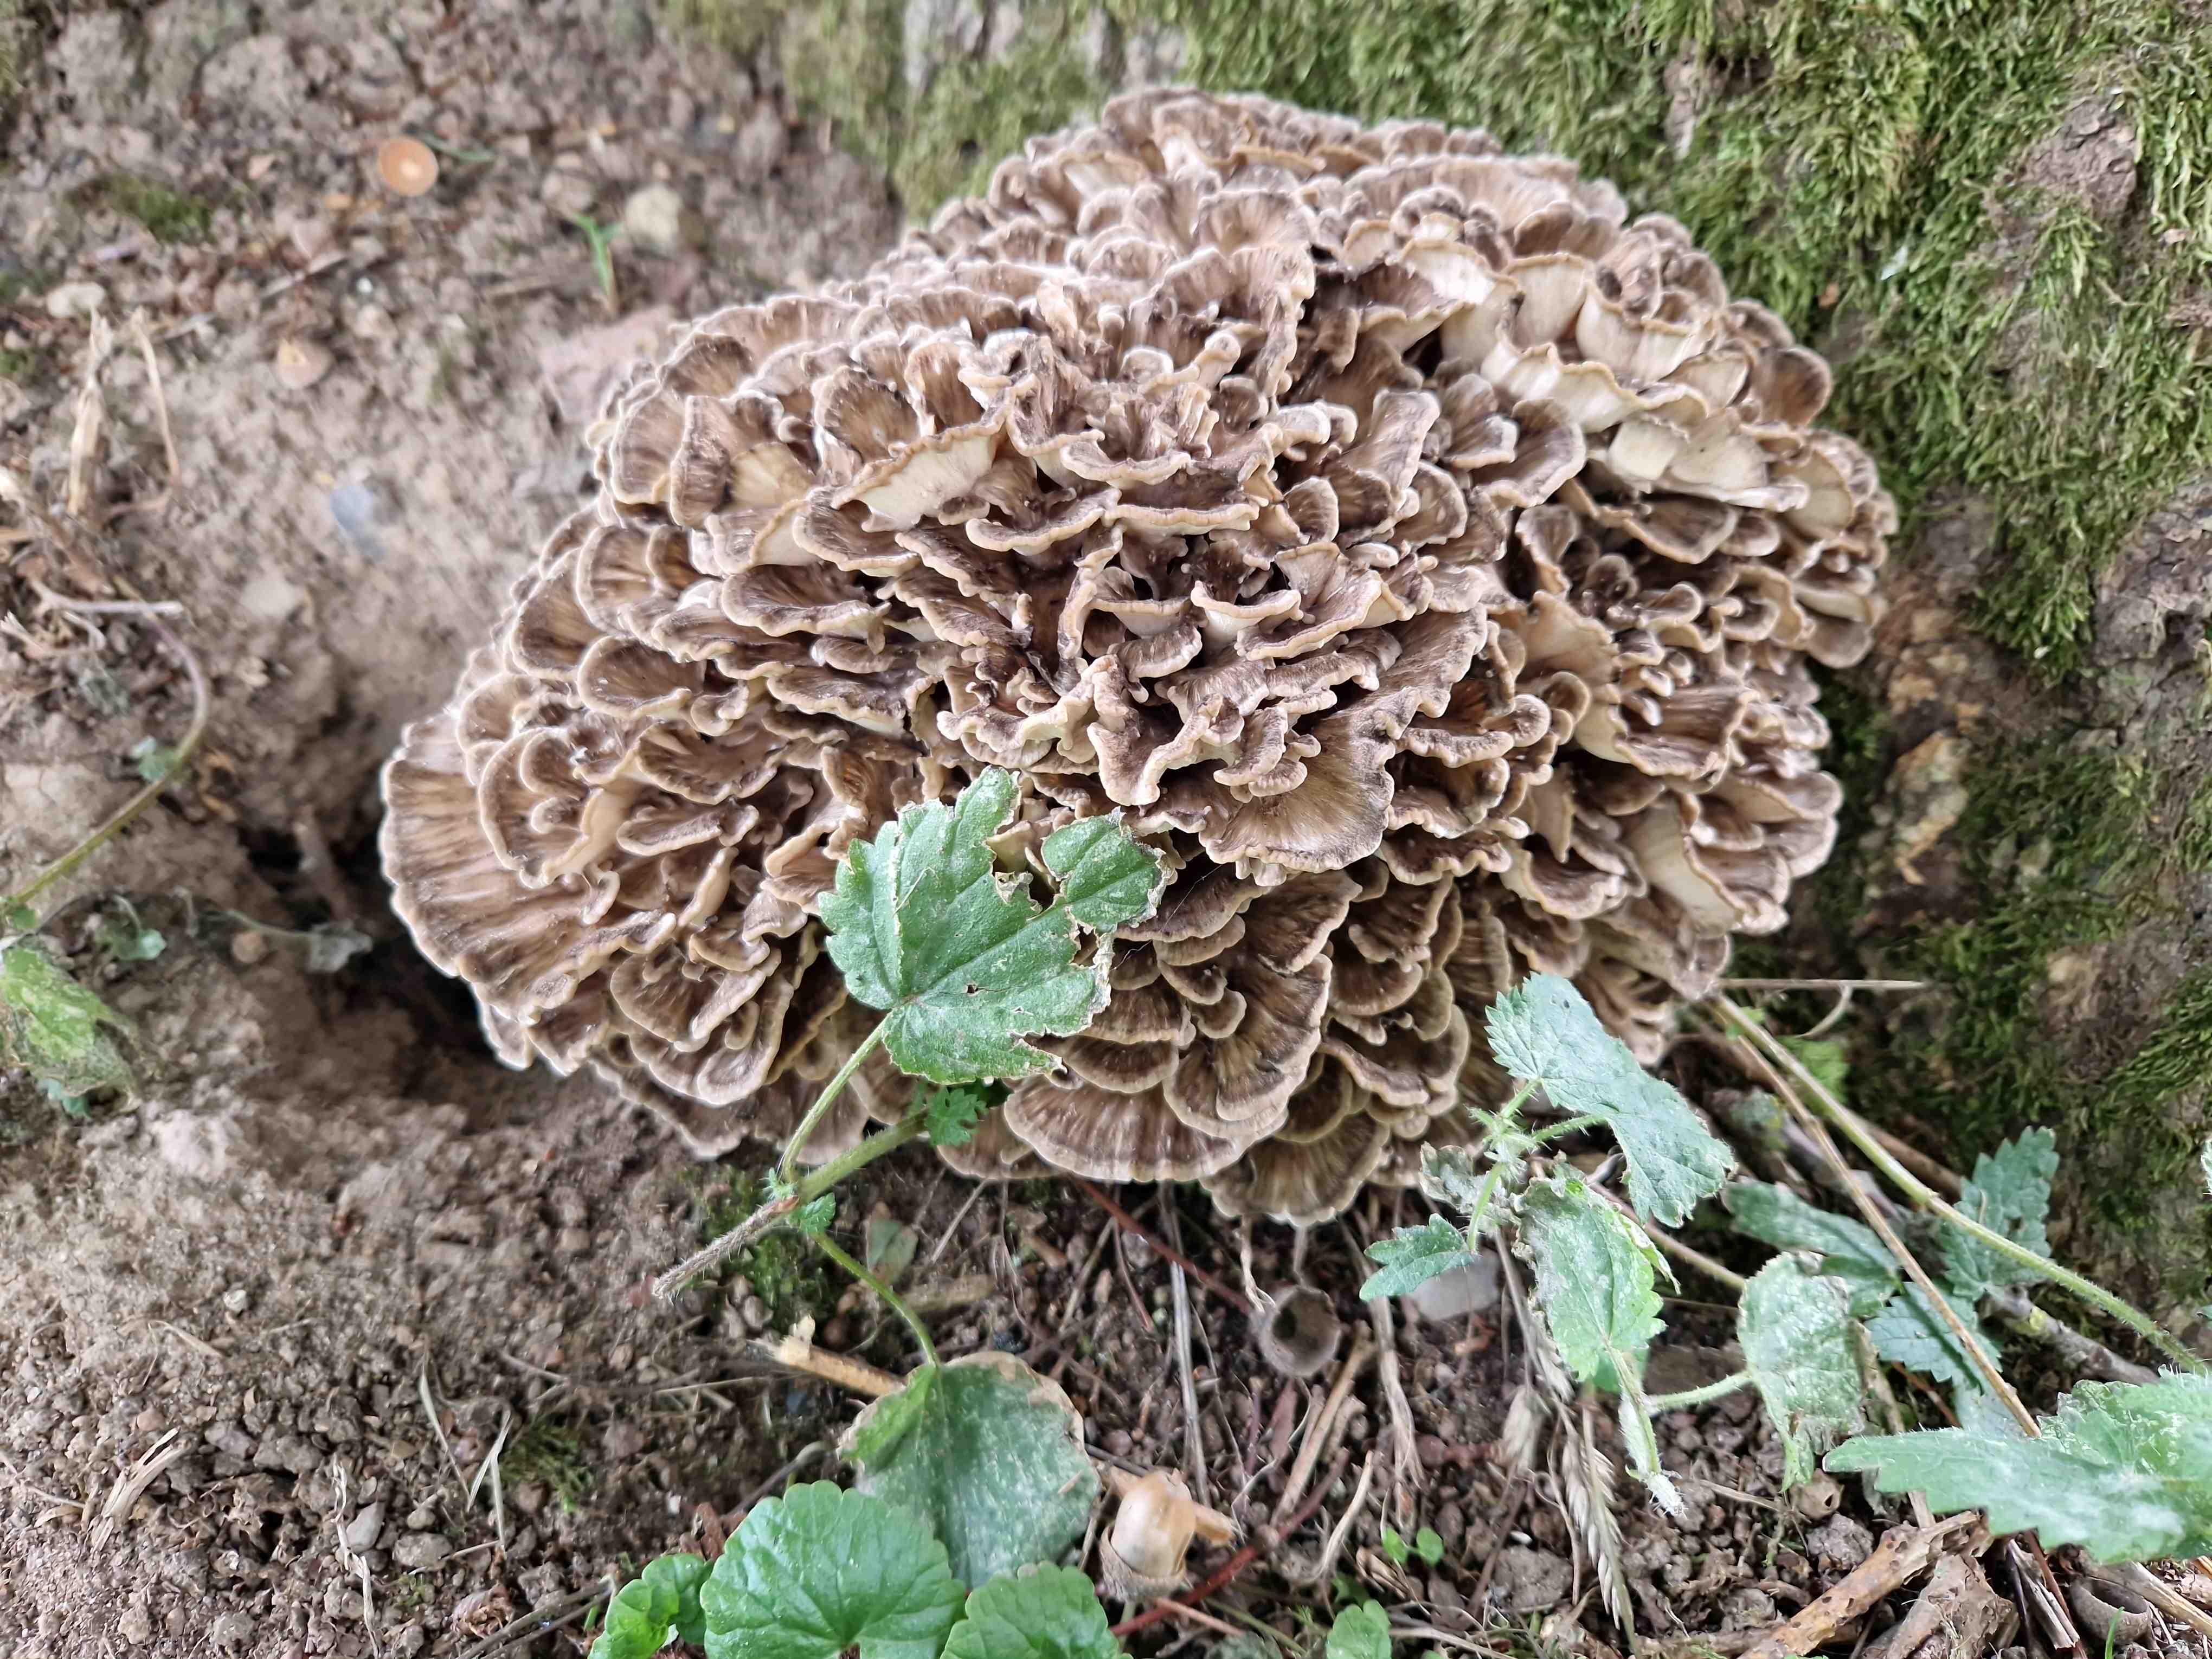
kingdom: Fungi
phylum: Basidiomycota
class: Agaricomycetes
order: Polyporales
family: Grifolaceae
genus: Grifola
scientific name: Grifola frondosa
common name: tueporesvamp
